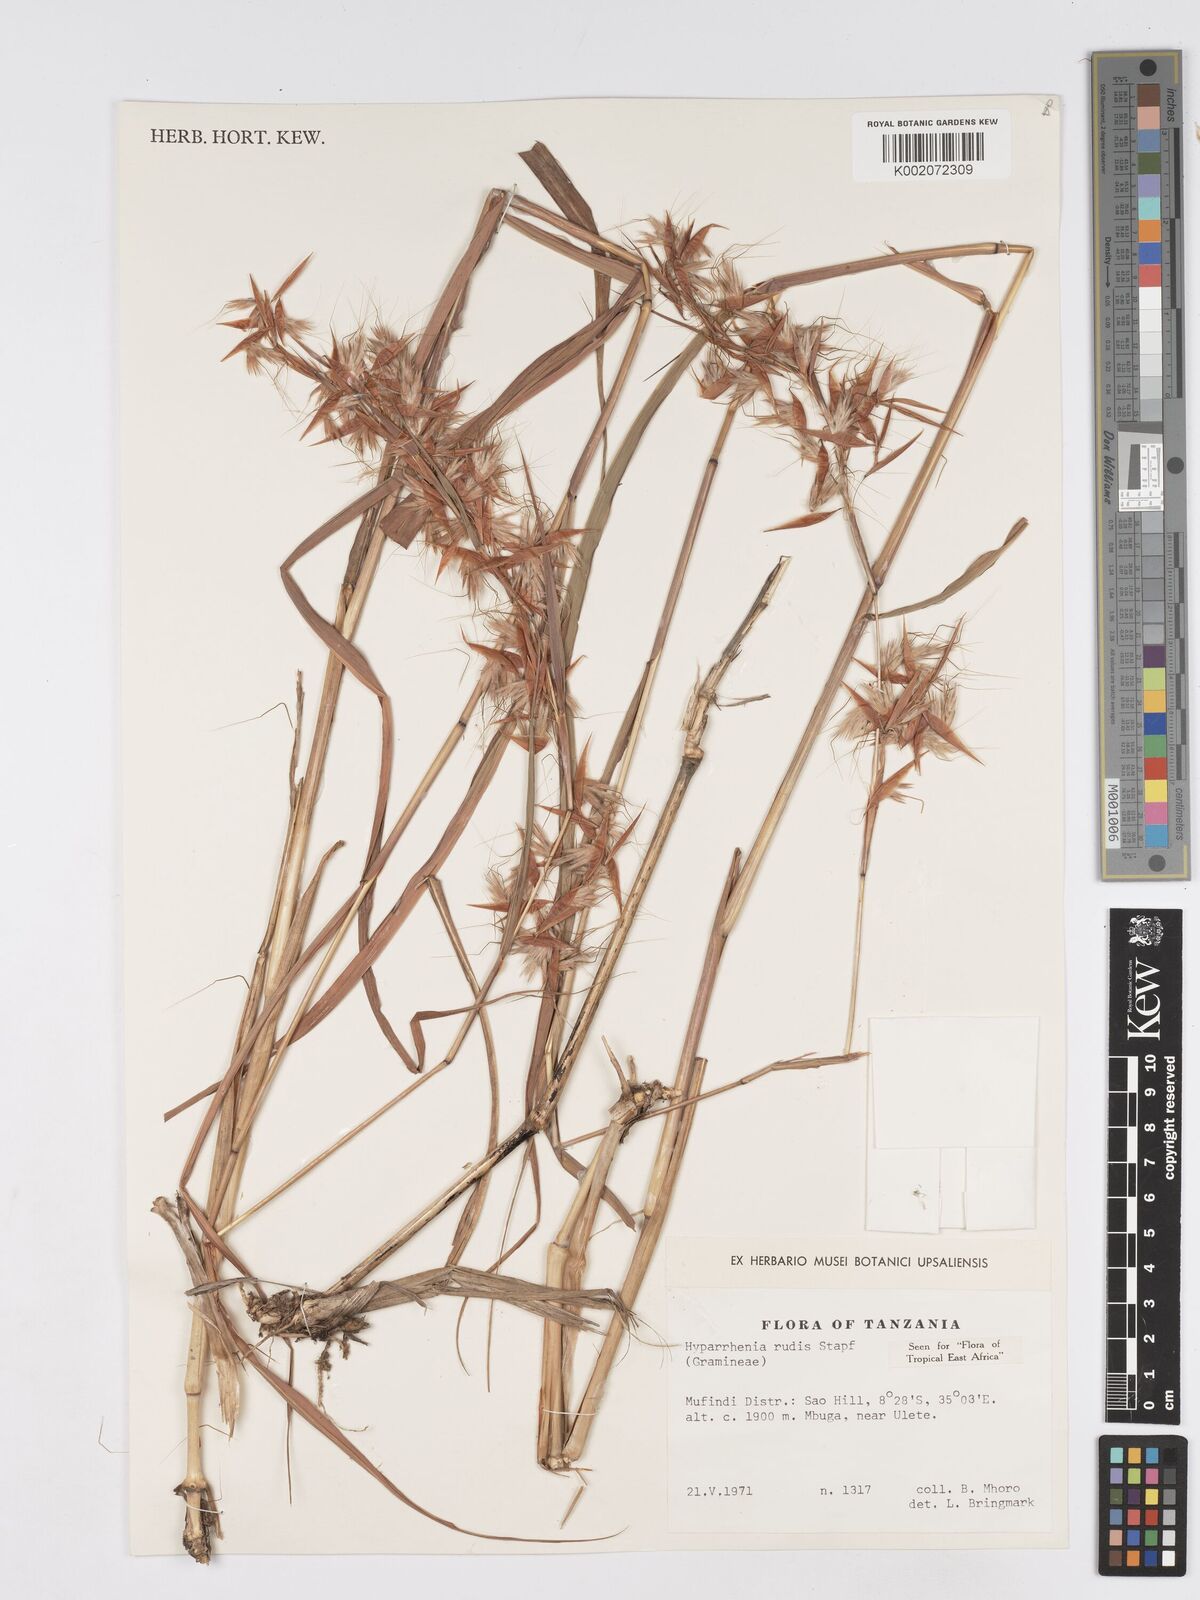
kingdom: Plantae
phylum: Tracheophyta
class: Liliopsida
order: Poales
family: Poaceae
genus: Hyparrhenia
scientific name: Hyparrhenia rudis
